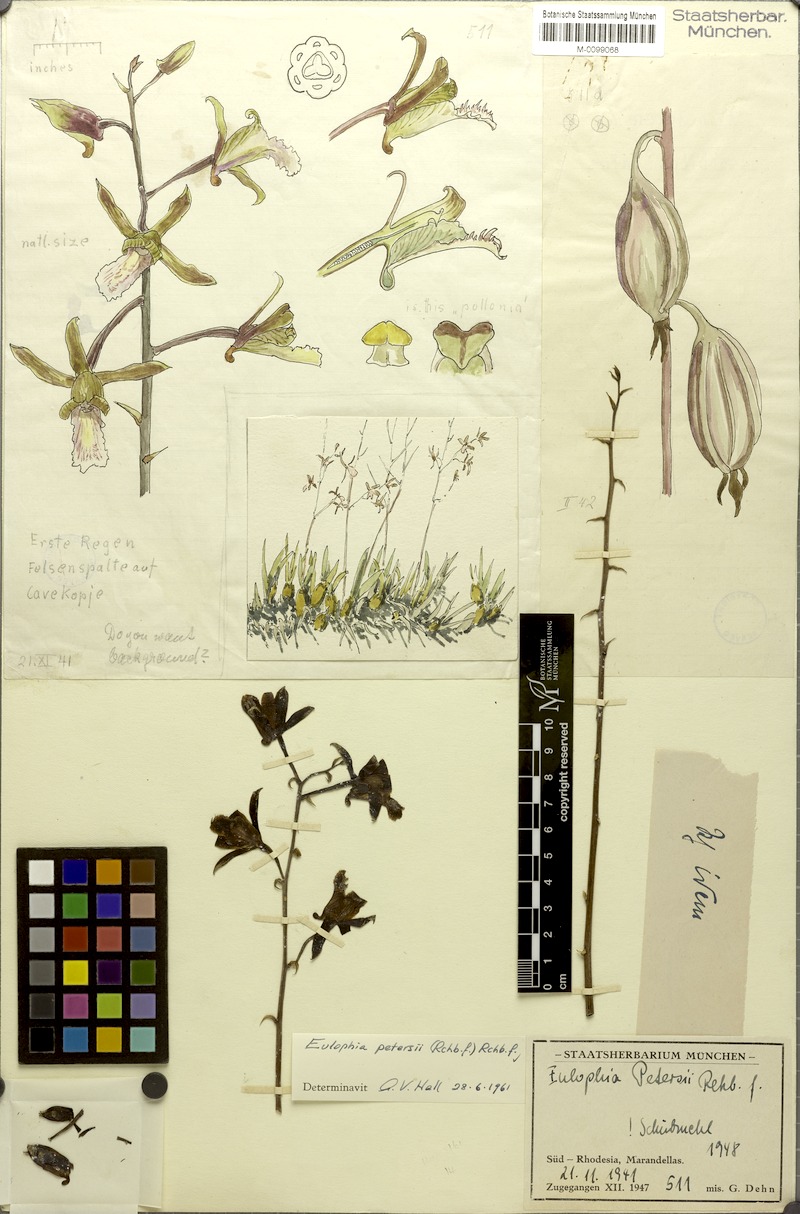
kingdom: Plantae
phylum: Tracheophyta
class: Liliopsida
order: Asparagales
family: Orchidaceae
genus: Eulophia
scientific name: Eulophia petersii
